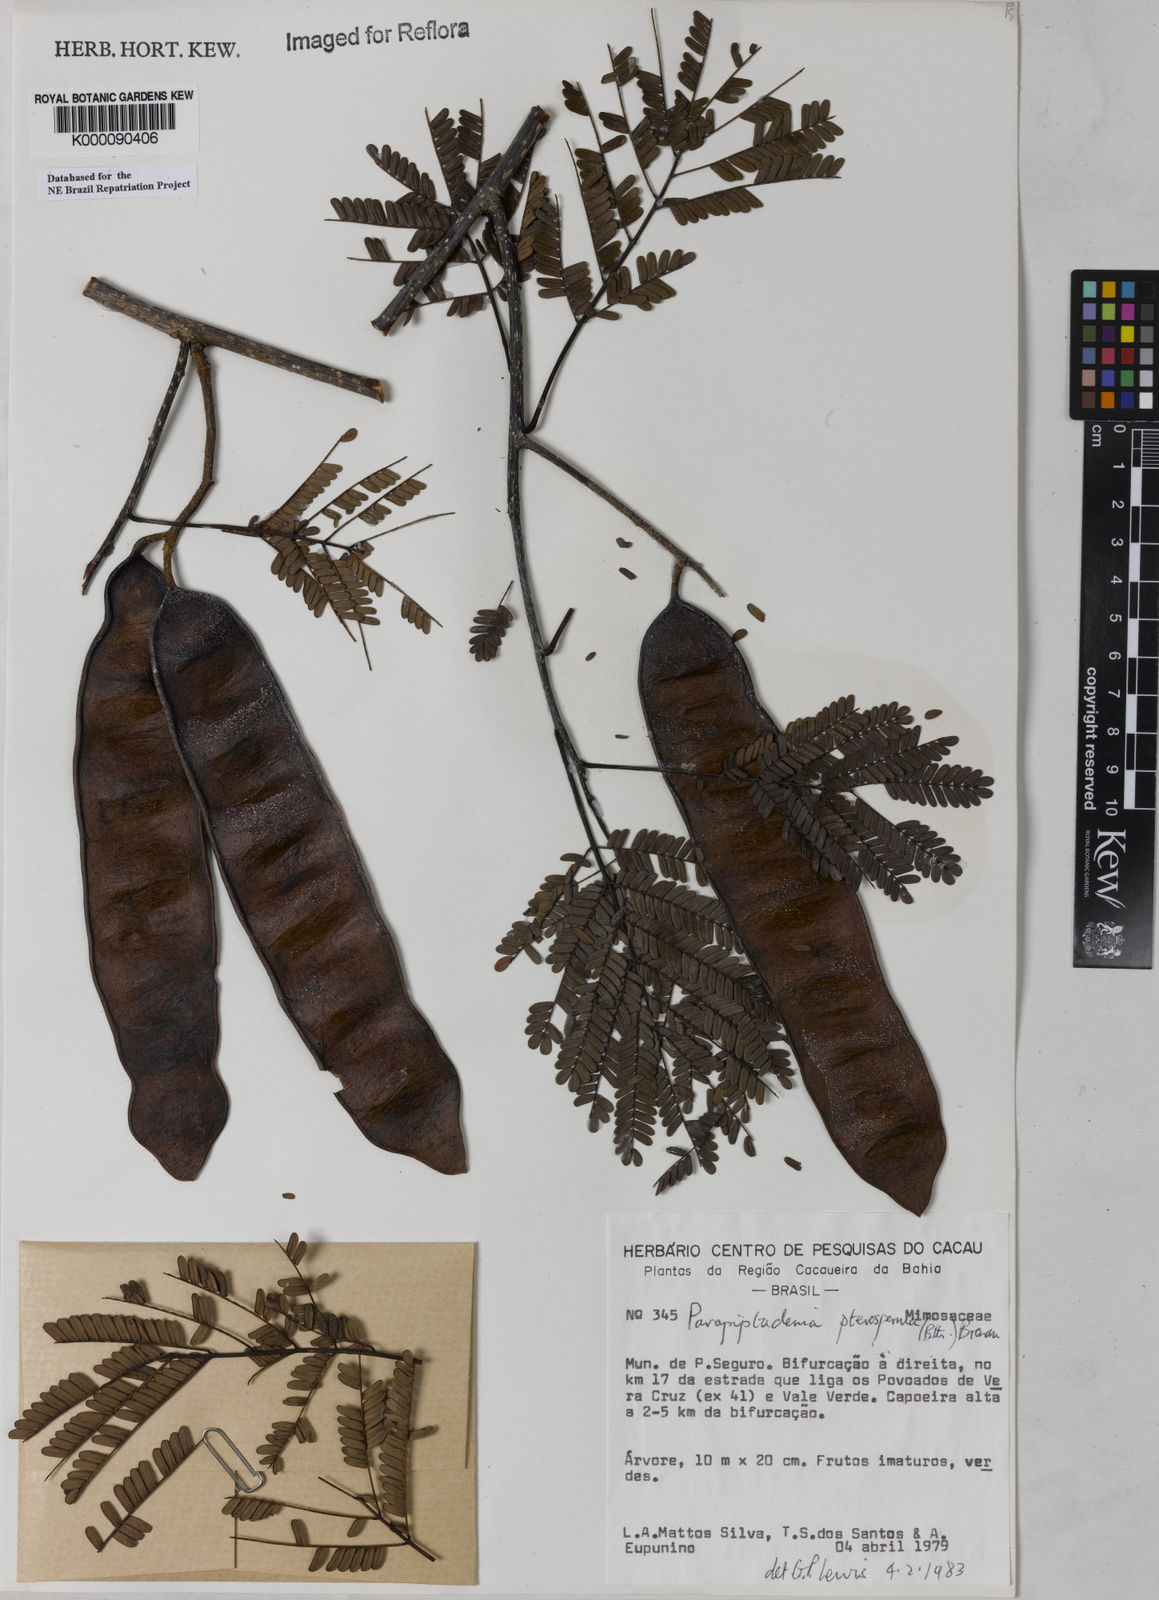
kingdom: Plantae
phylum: Tracheophyta
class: Magnoliopsida
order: Fabales
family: Fabaceae
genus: Parapiptadenia
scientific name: Parapiptadenia pterosperma
